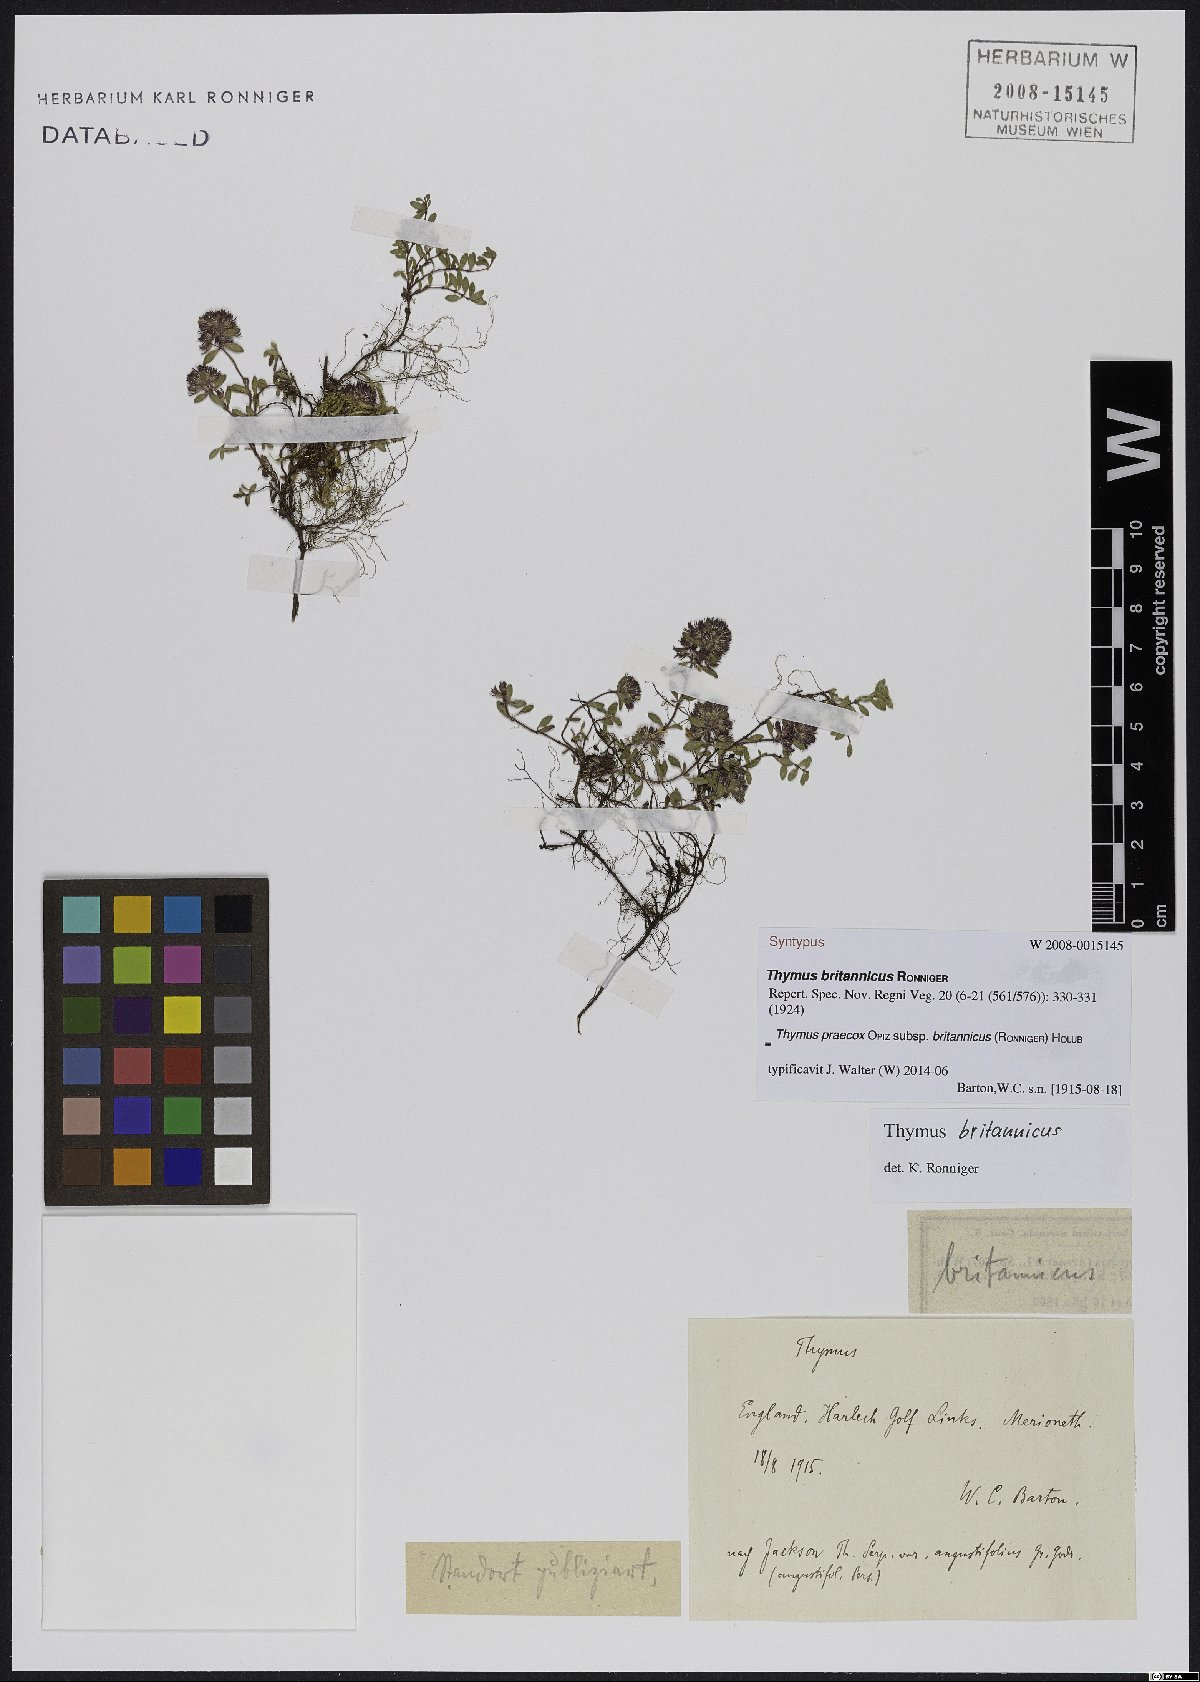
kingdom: Plantae
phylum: Tracheophyta
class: Magnoliopsida
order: Lamiales
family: Lamiaceae
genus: Thymus
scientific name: Thymus praecox
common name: Wild thyme
